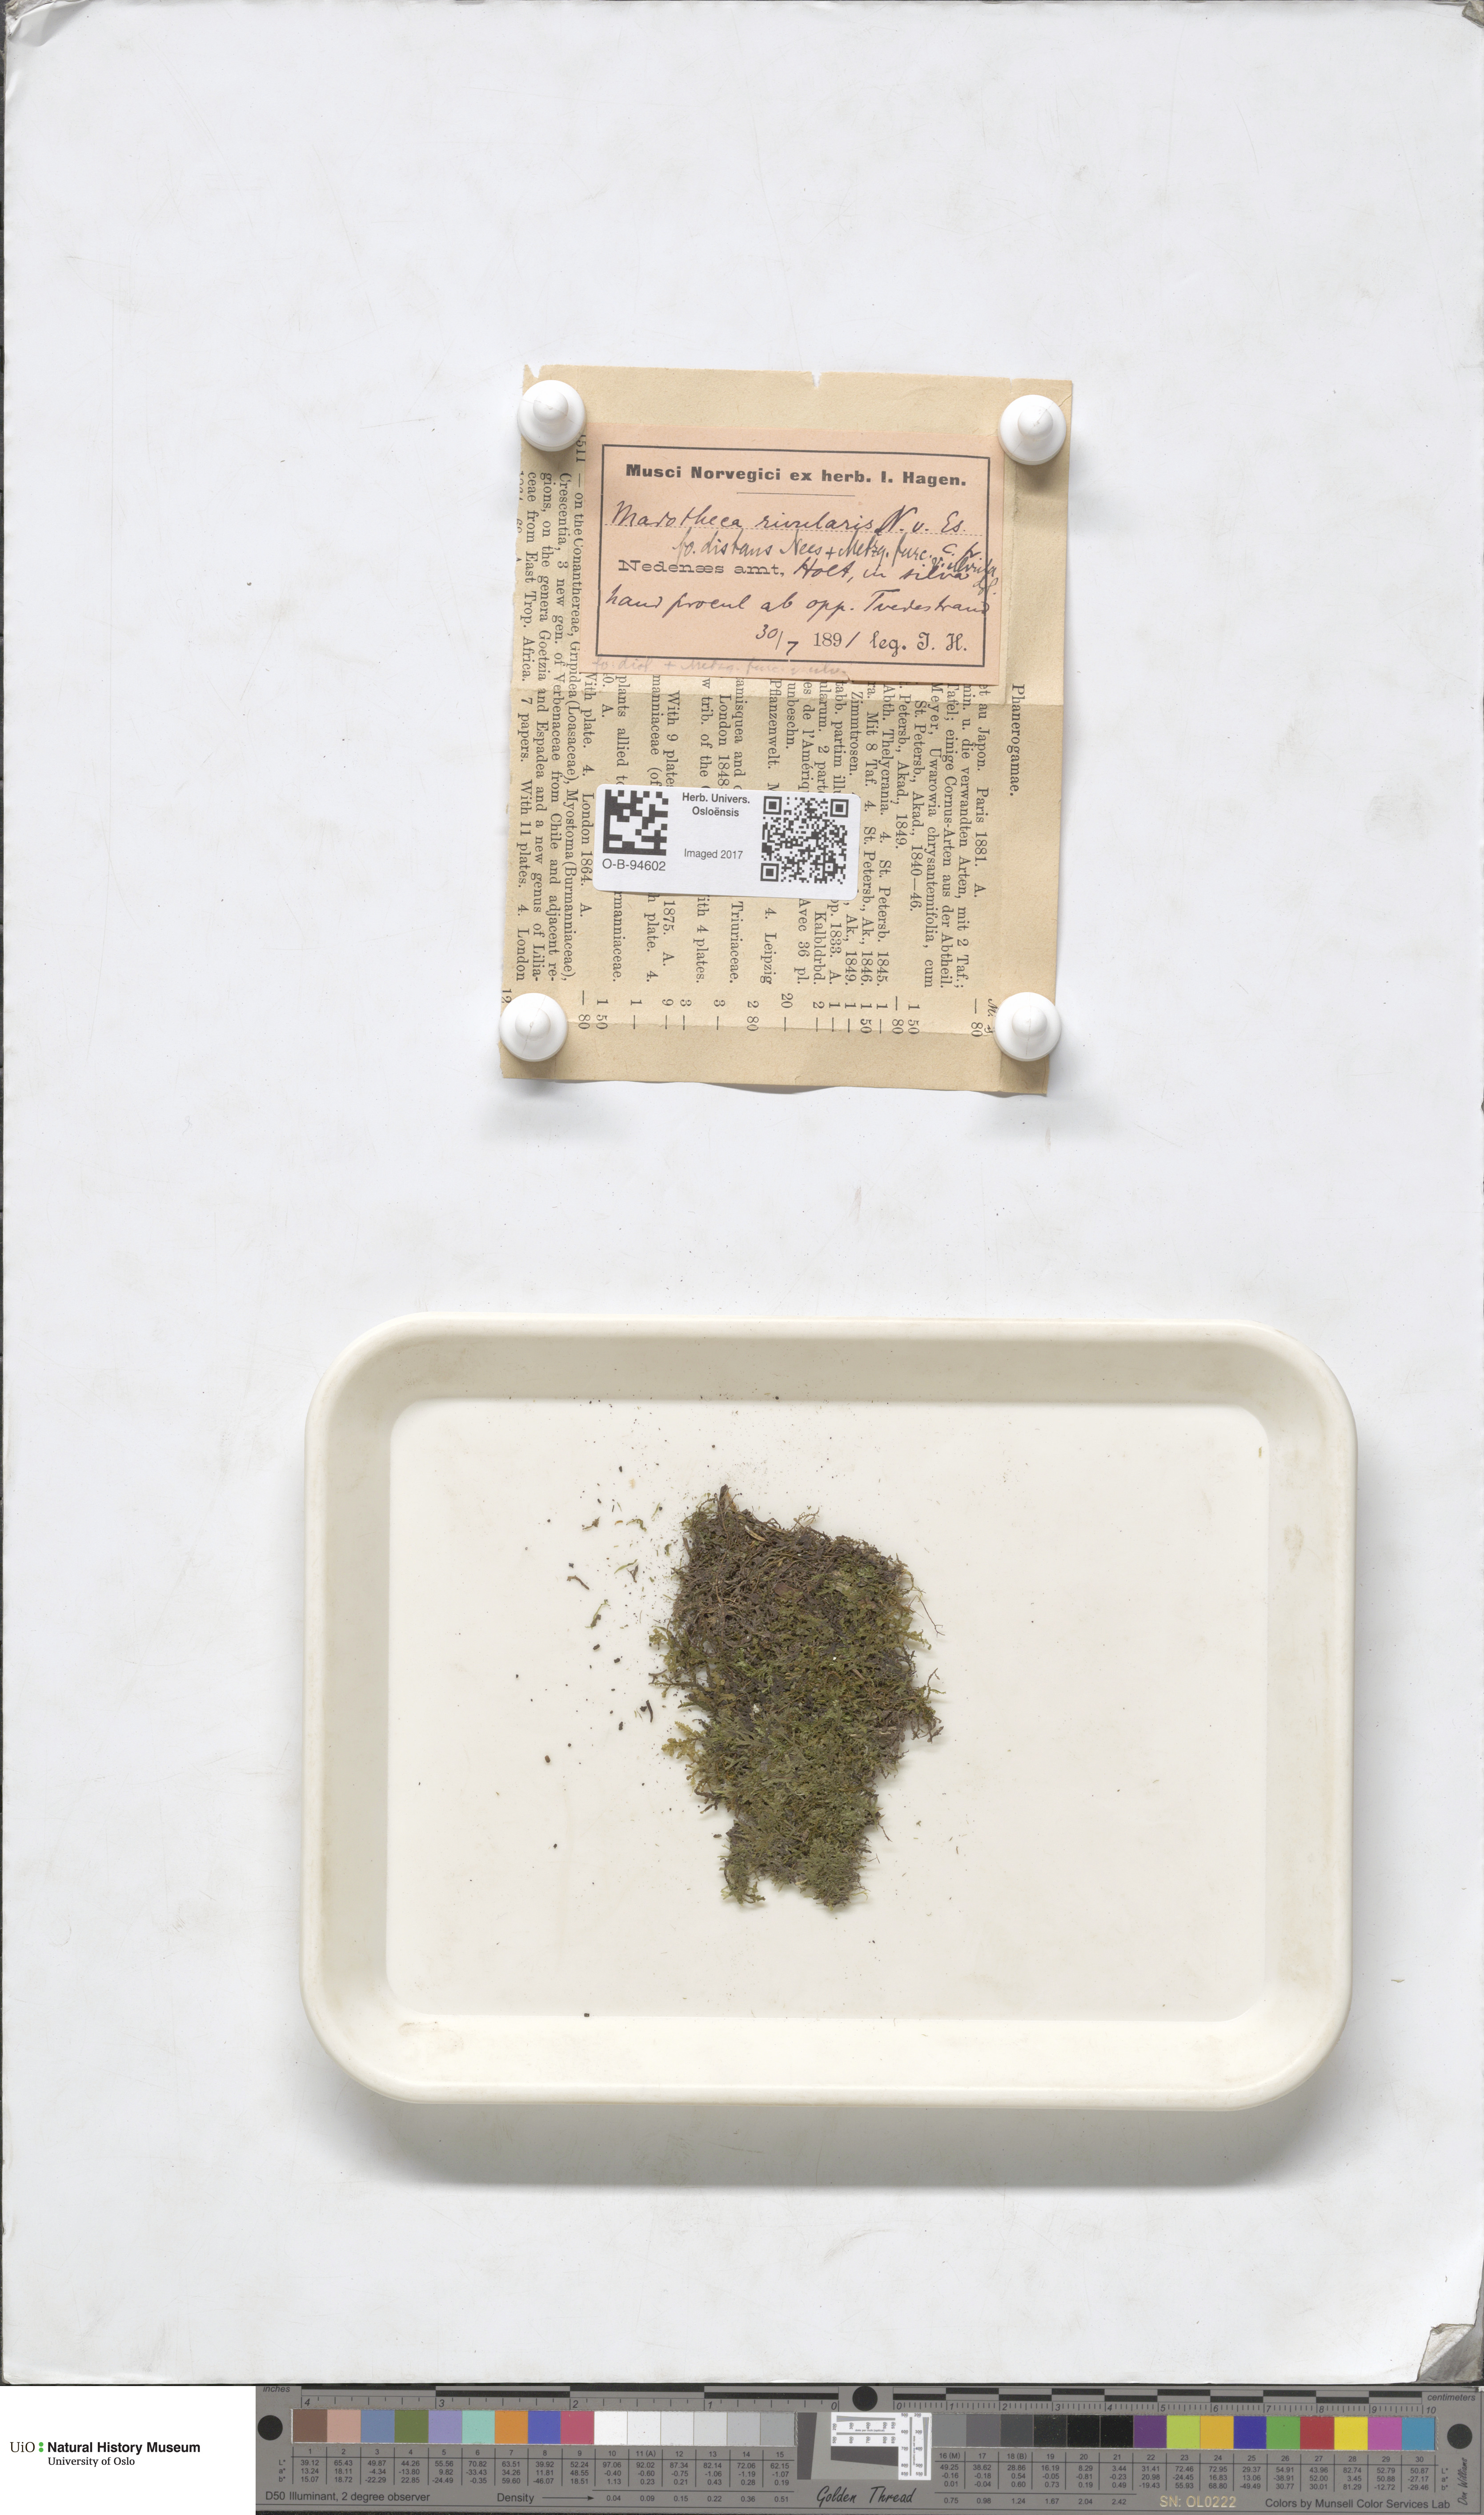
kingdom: Plantae
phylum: Marchantiophyta
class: Jungermanniopsida
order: Metzgeriales
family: Metzgeriaceae
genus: Metzgeria
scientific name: Metzgeria furcata
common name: Forked veilwort
